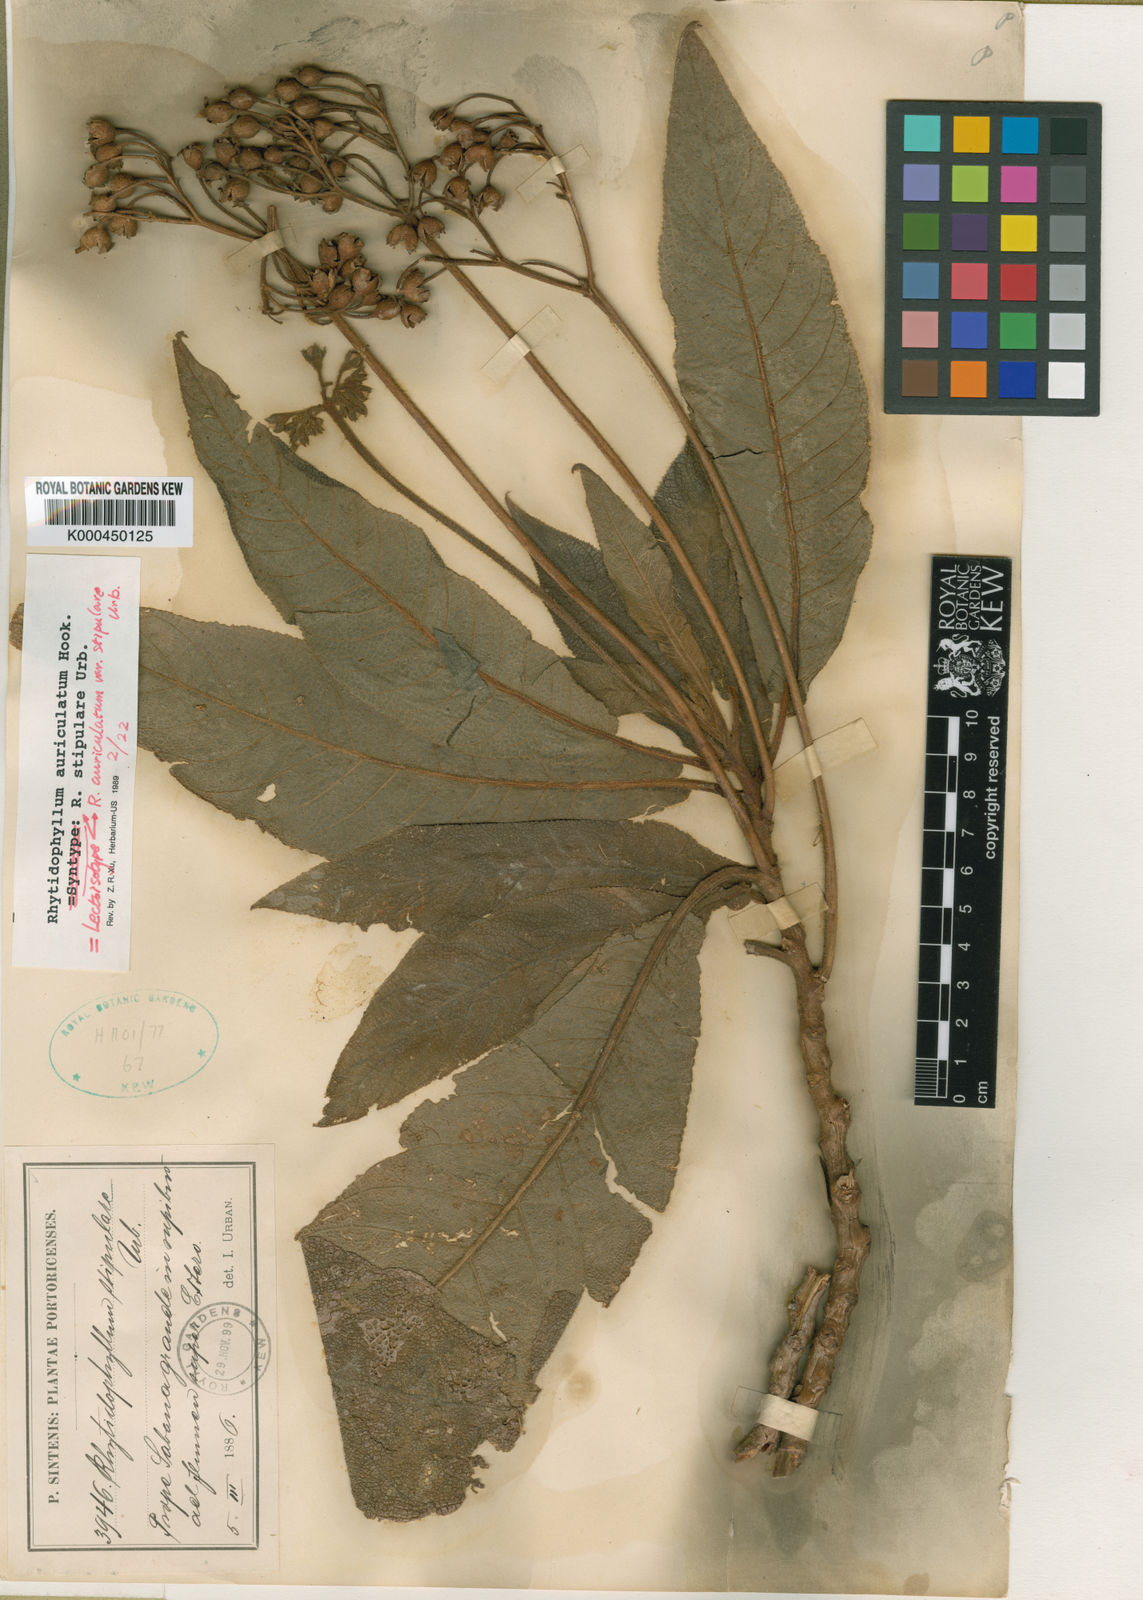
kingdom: Plantae
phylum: Tracheophyta
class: Magnoliopsida
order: Lamiales
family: Gesneriaceae
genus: Rhytidophyllum
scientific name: Rhytidophyllum auriculatum
